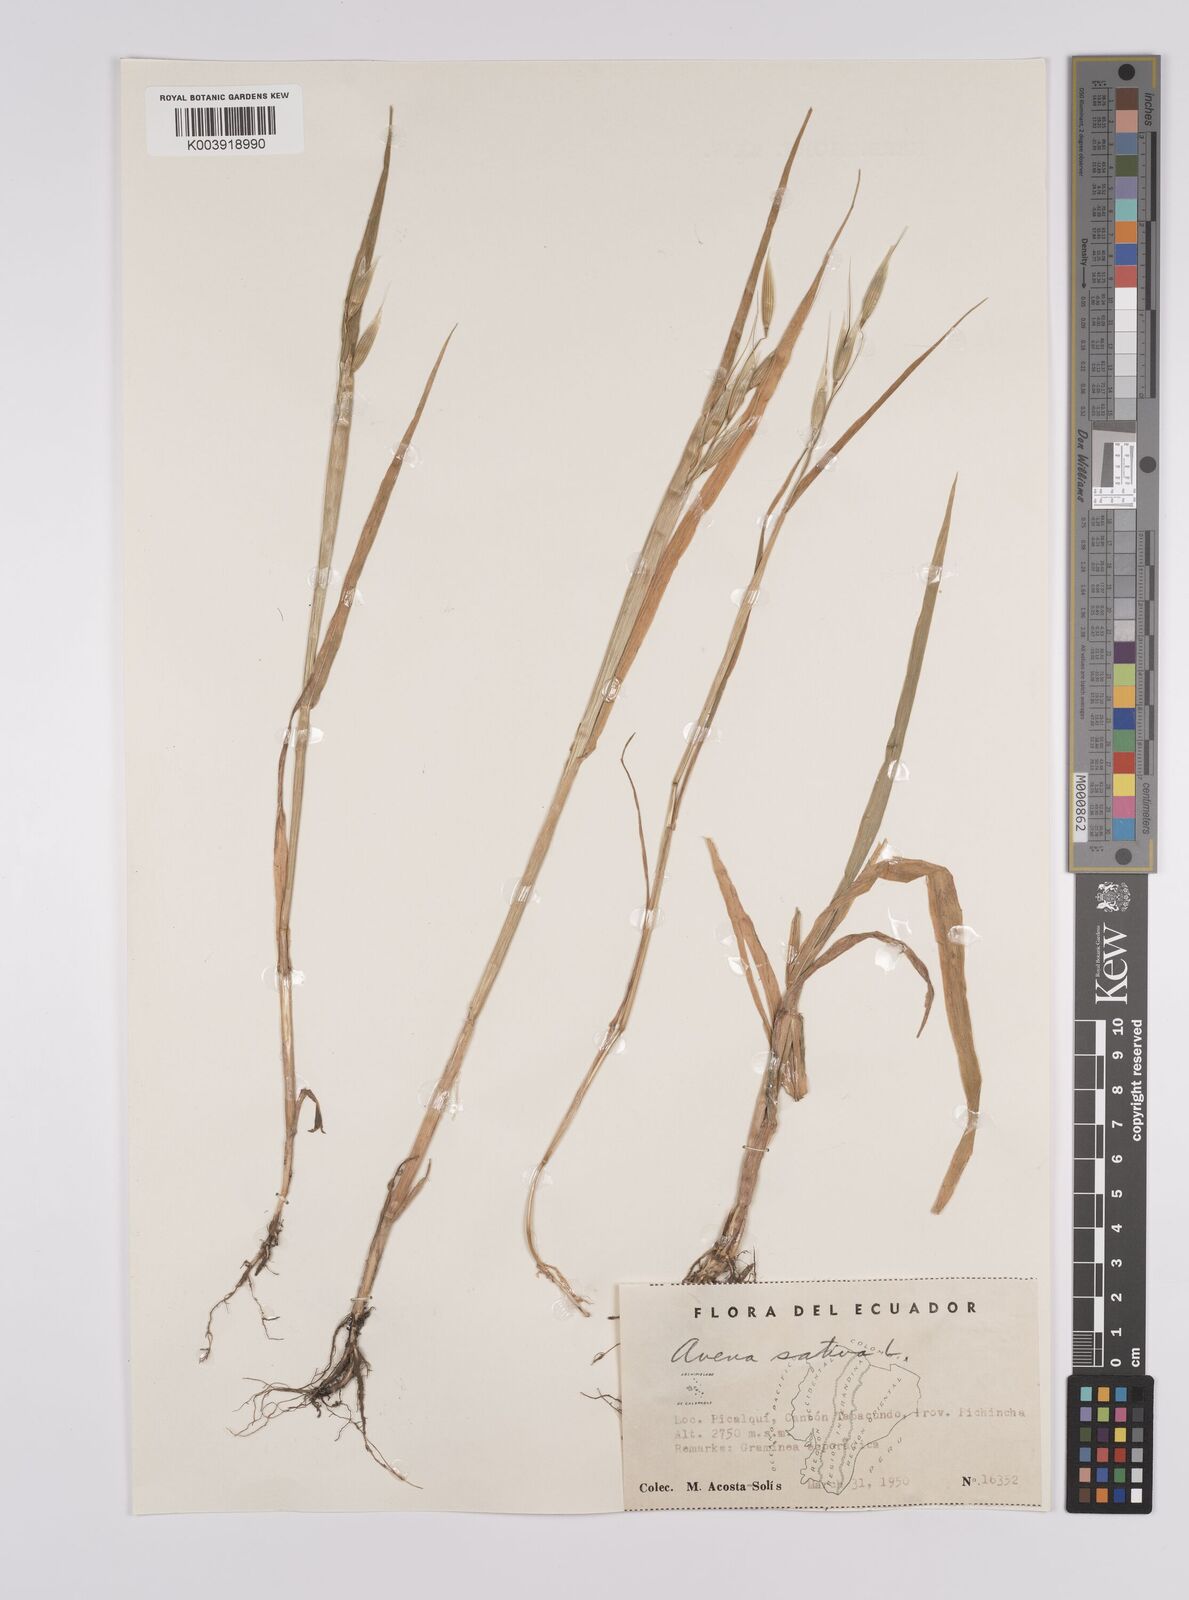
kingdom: Plantae
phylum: Tracheophyta
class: Liliopsida
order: Poales
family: Poaceae
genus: Avena
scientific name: Avena sativa
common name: Oat
